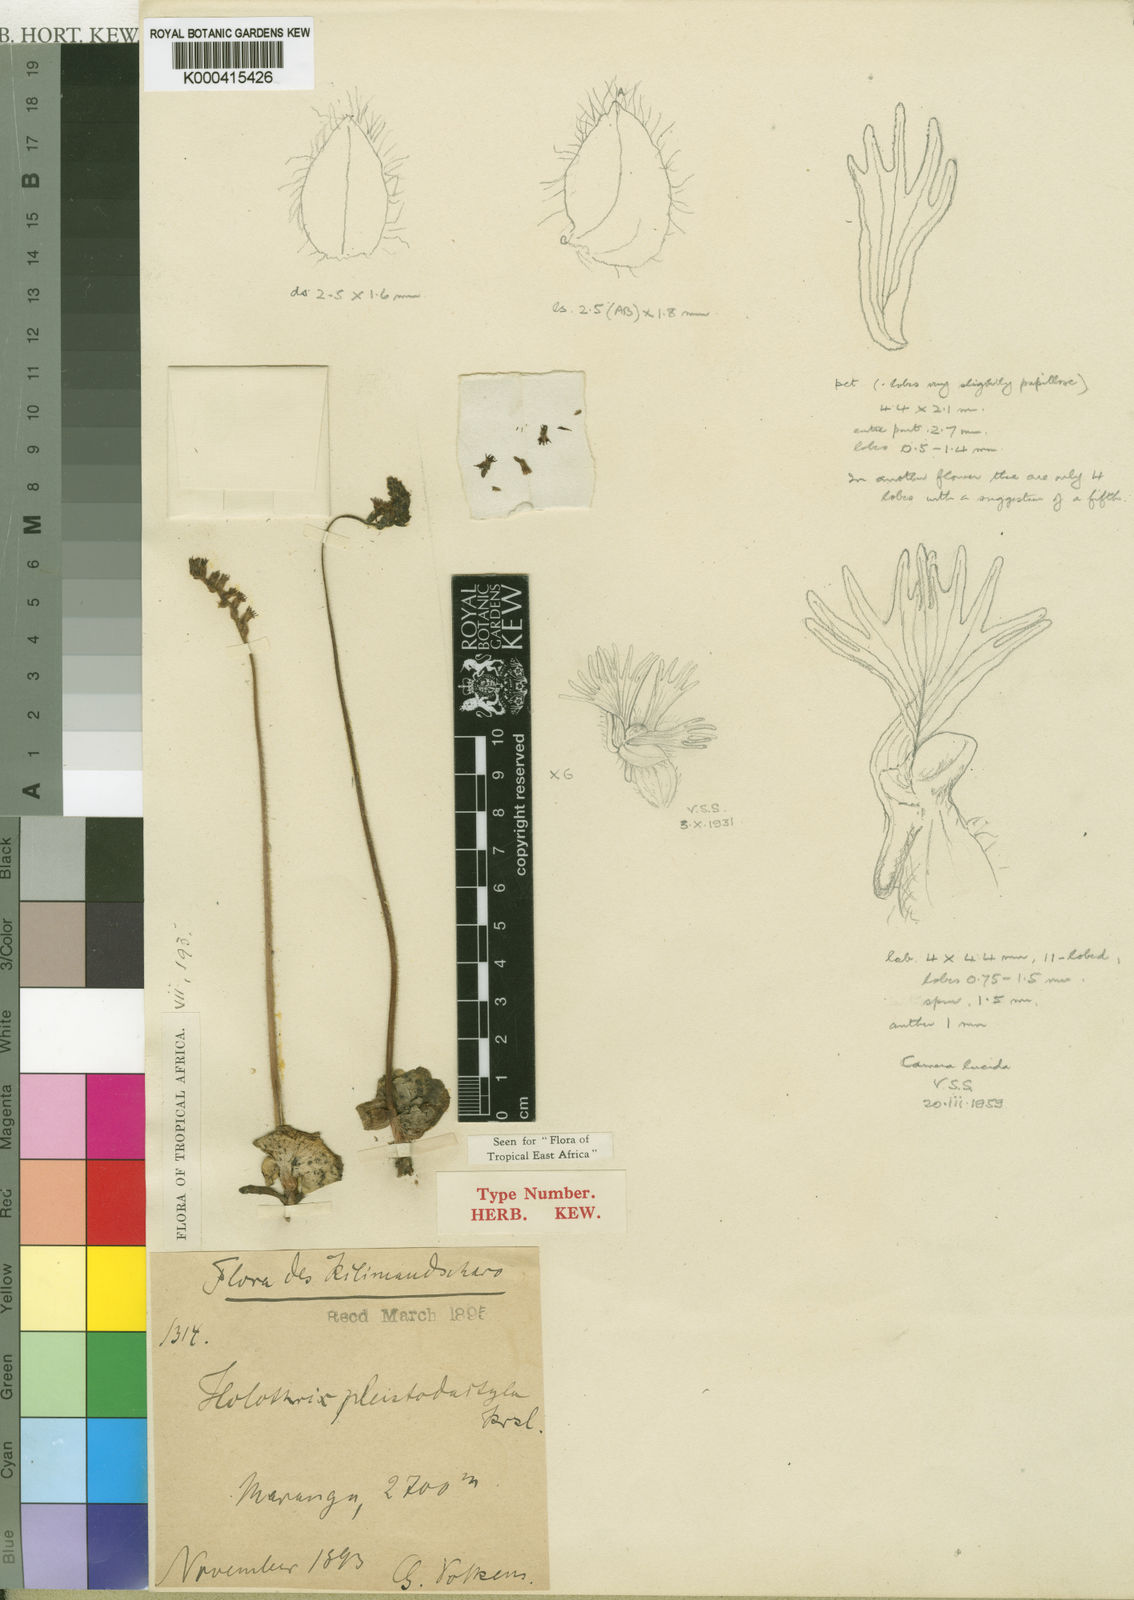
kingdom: Plantae
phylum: Tracheophyta
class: Liliopsida
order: Asparagales
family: Orchidaceae
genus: Holothrix
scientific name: Holothrix pleistodactyla
